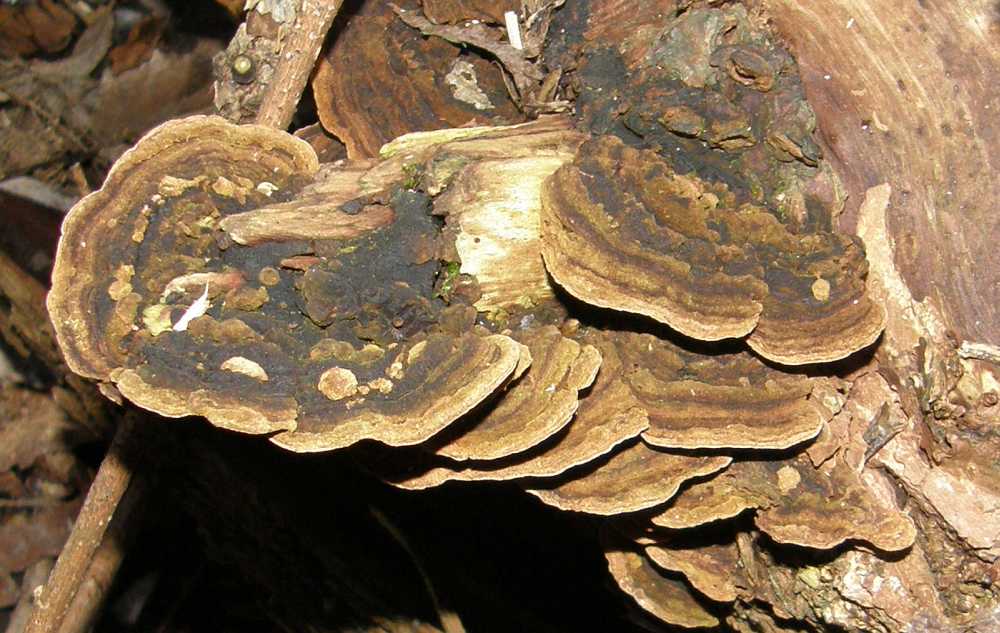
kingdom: Fungi
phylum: Basidiomycota
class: Agaricomycetes
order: Hymenochaetales
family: Hymenochaetaceae
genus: Phellinopsis
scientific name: Phellinopsis conchata
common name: pile-ildporesvamp
